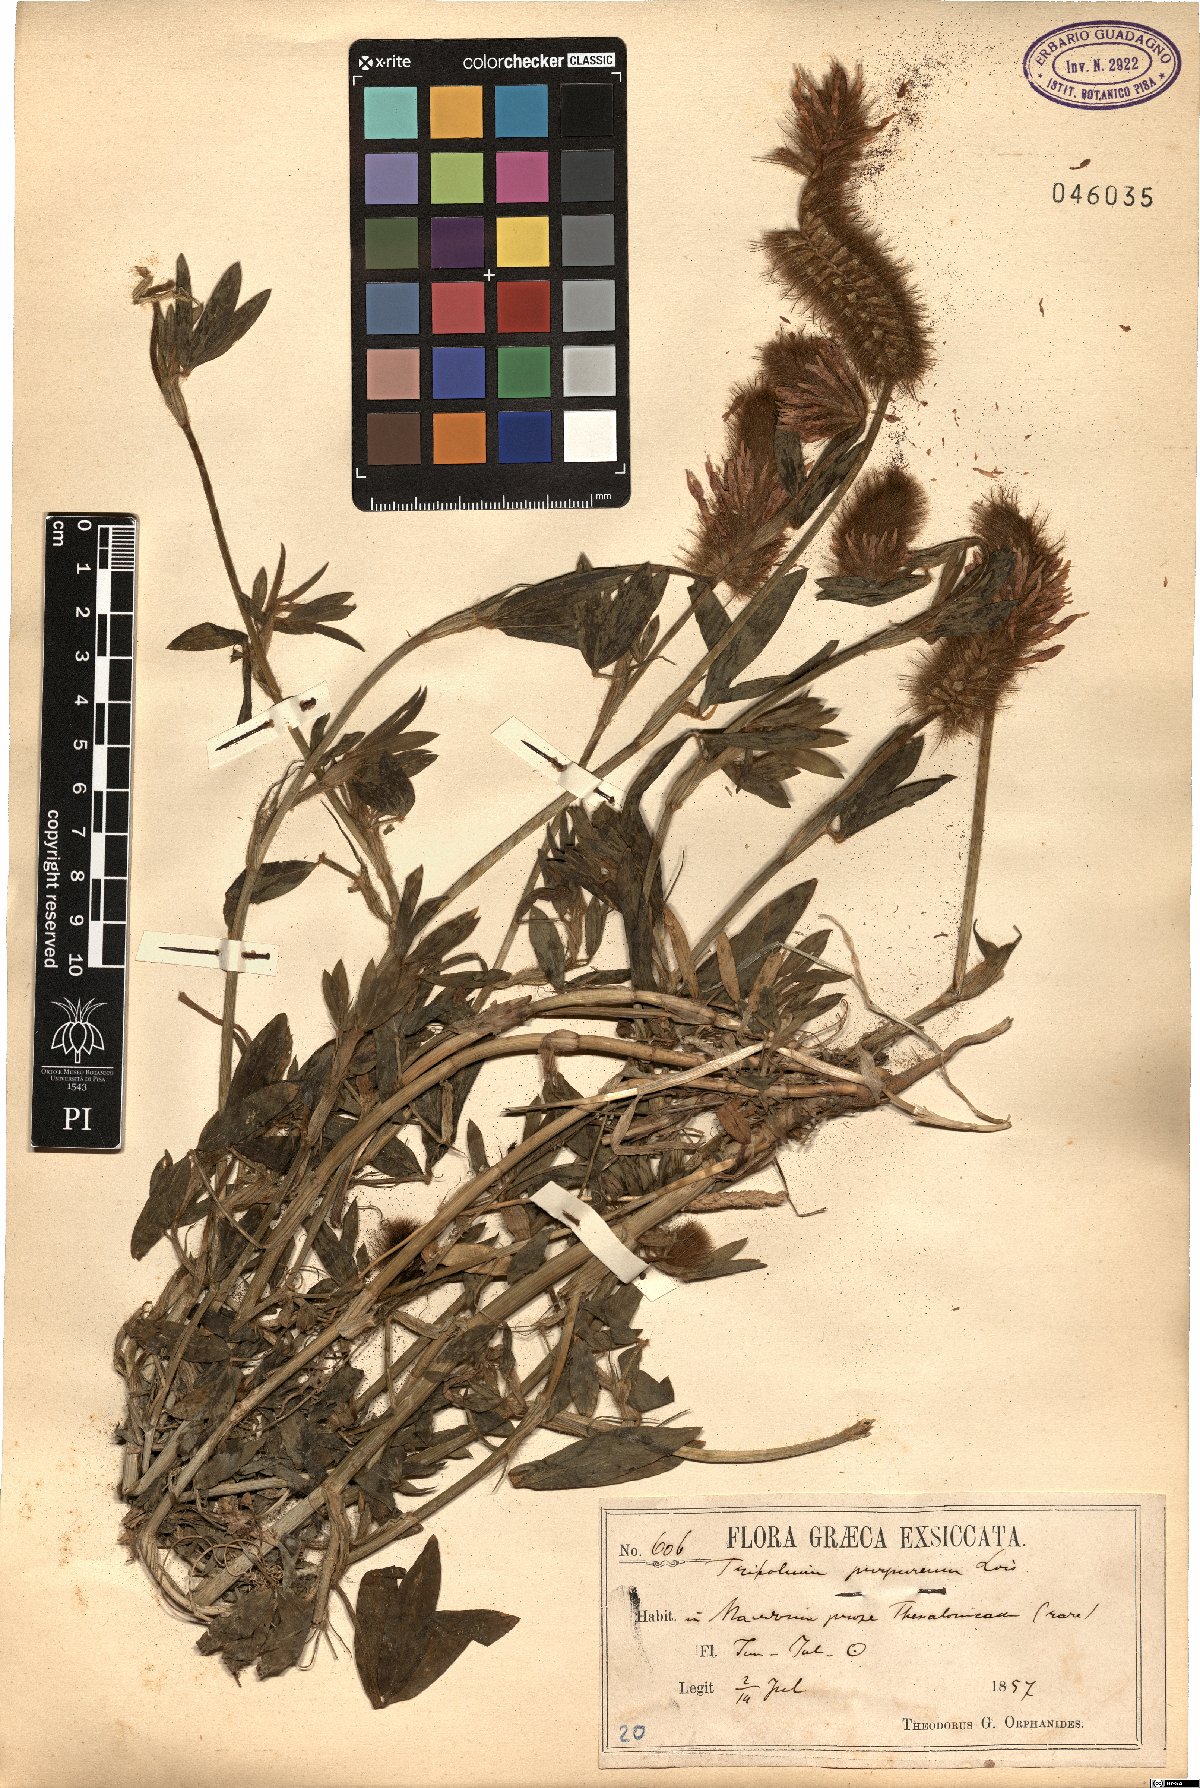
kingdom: Plantae
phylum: Tracheophyta
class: Magnoliopsida
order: Fabales
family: Fabaceae
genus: Trifolium
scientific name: Trifolium purpureum
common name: Purple clover
